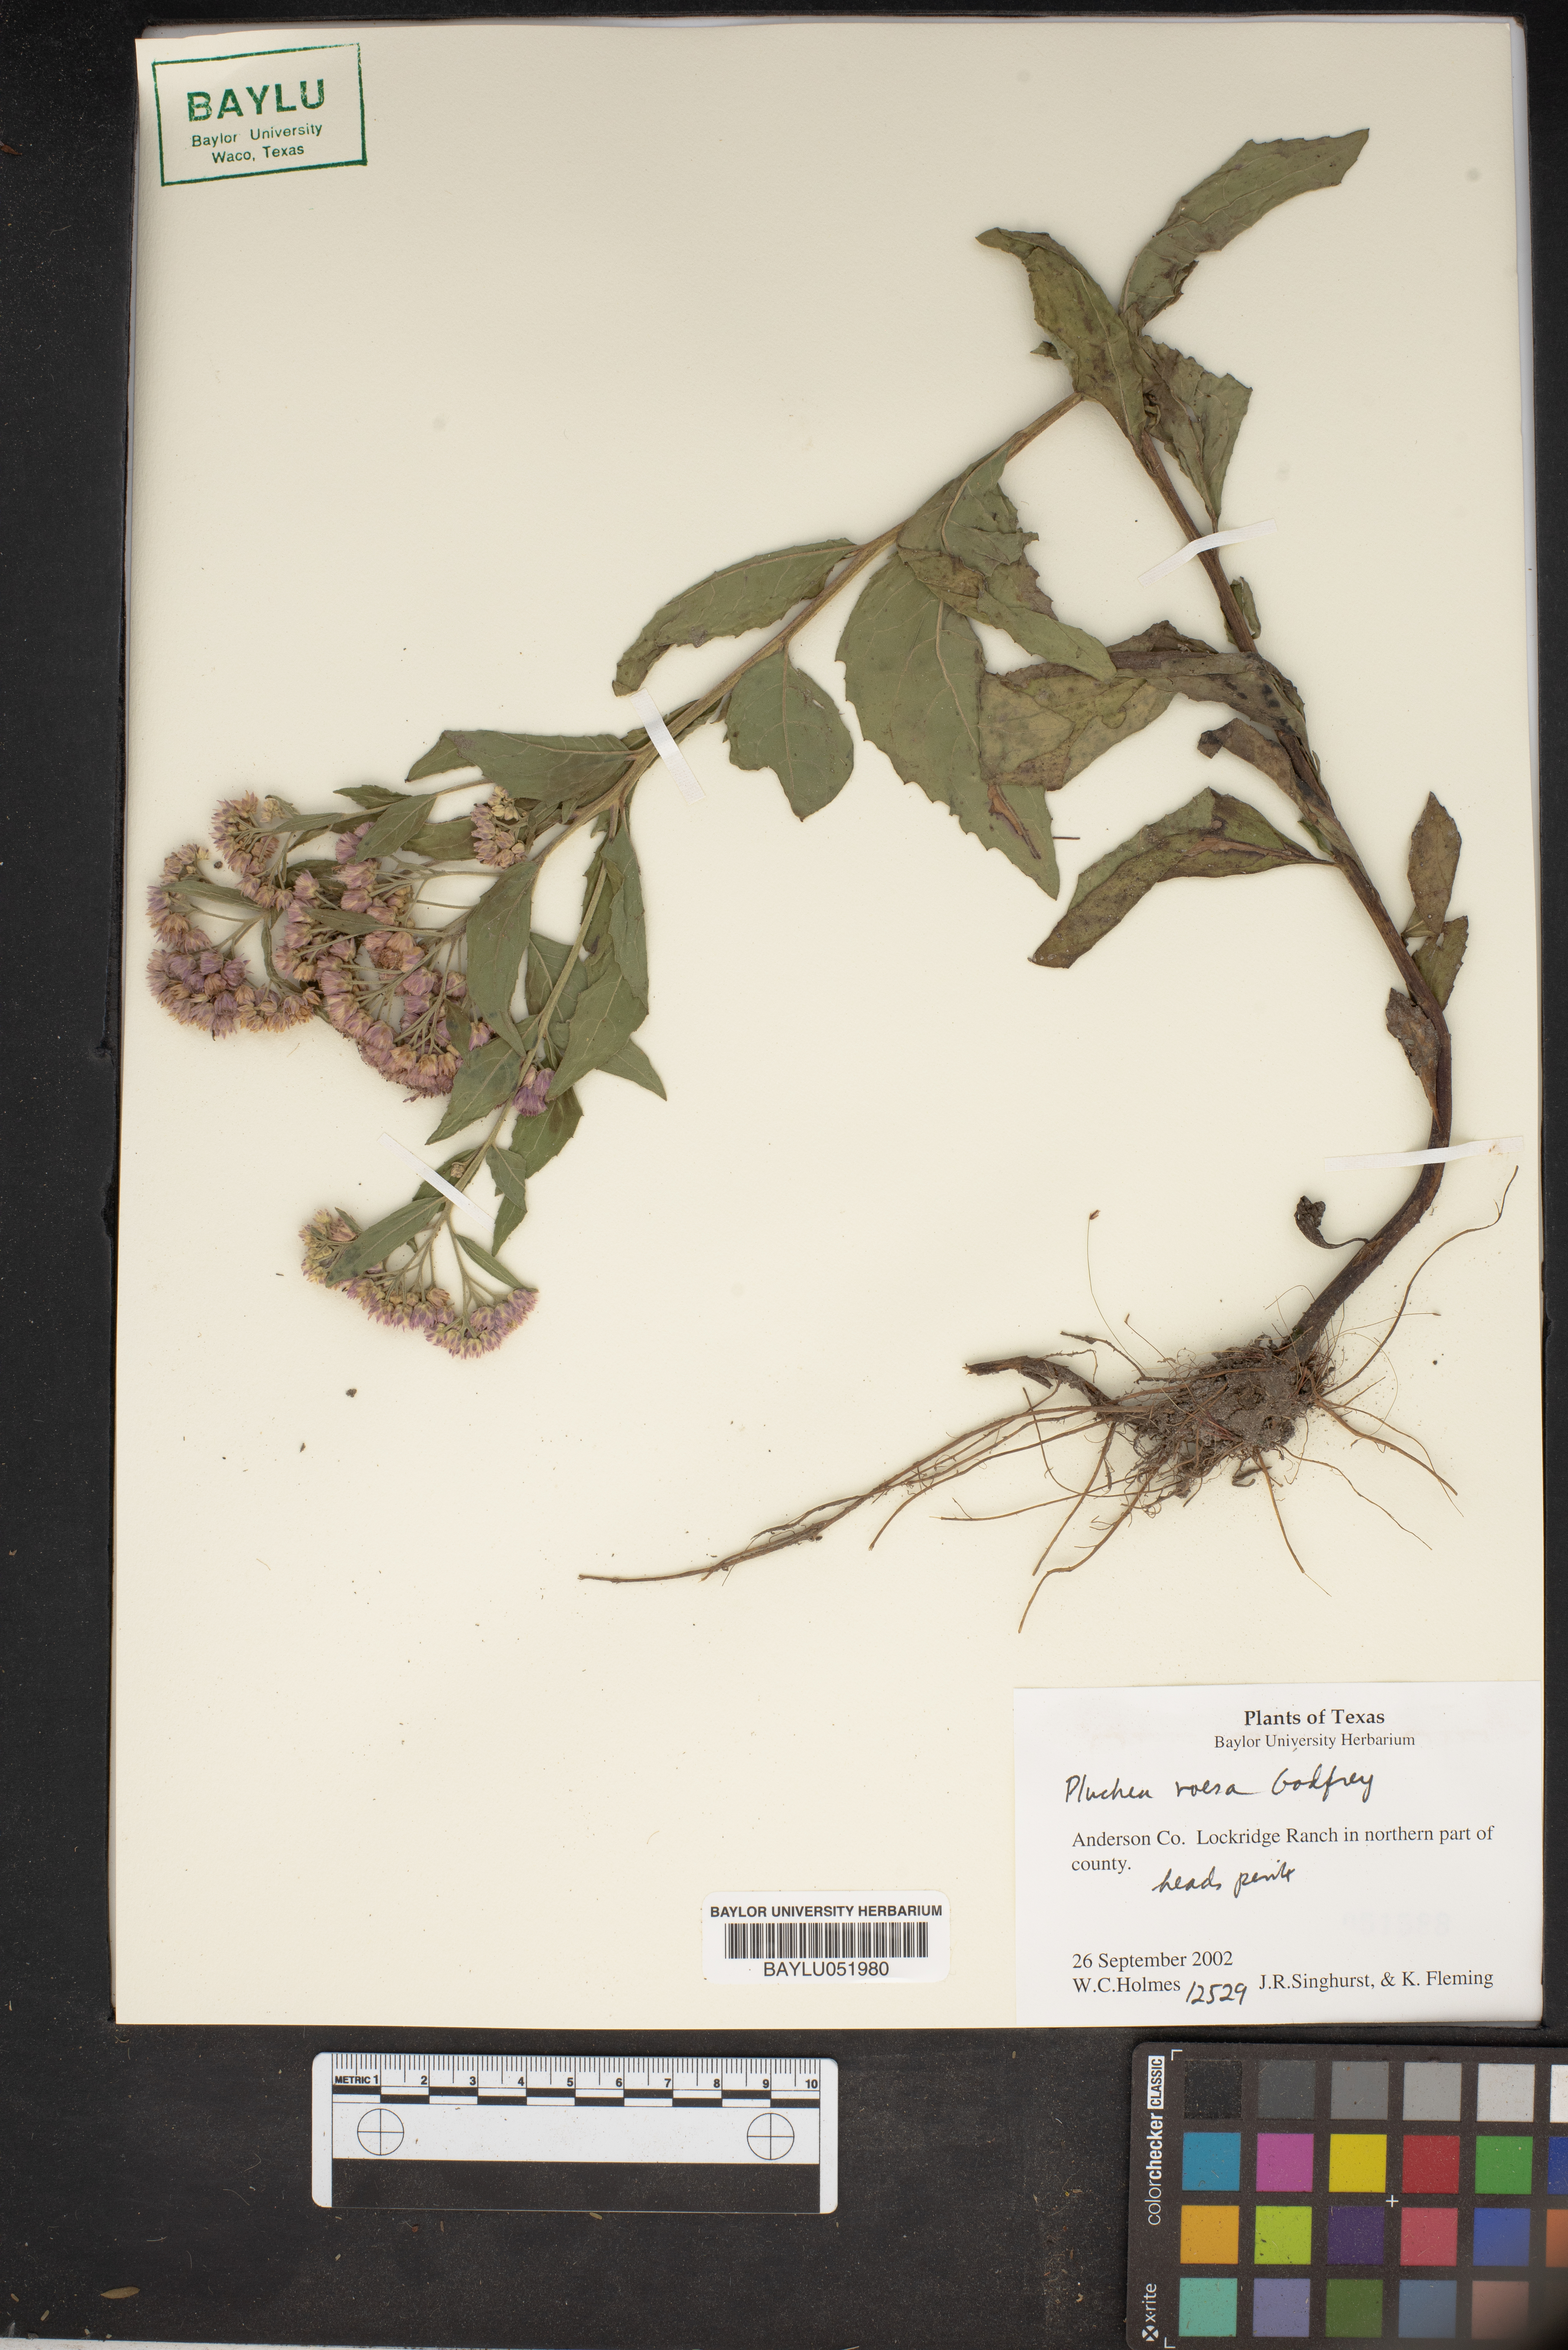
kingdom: Plantae
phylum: Tracheophyta
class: Magnoliopsida
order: Asterales
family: Asteraceae
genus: Pluchea
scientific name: Pluchea baccharis
